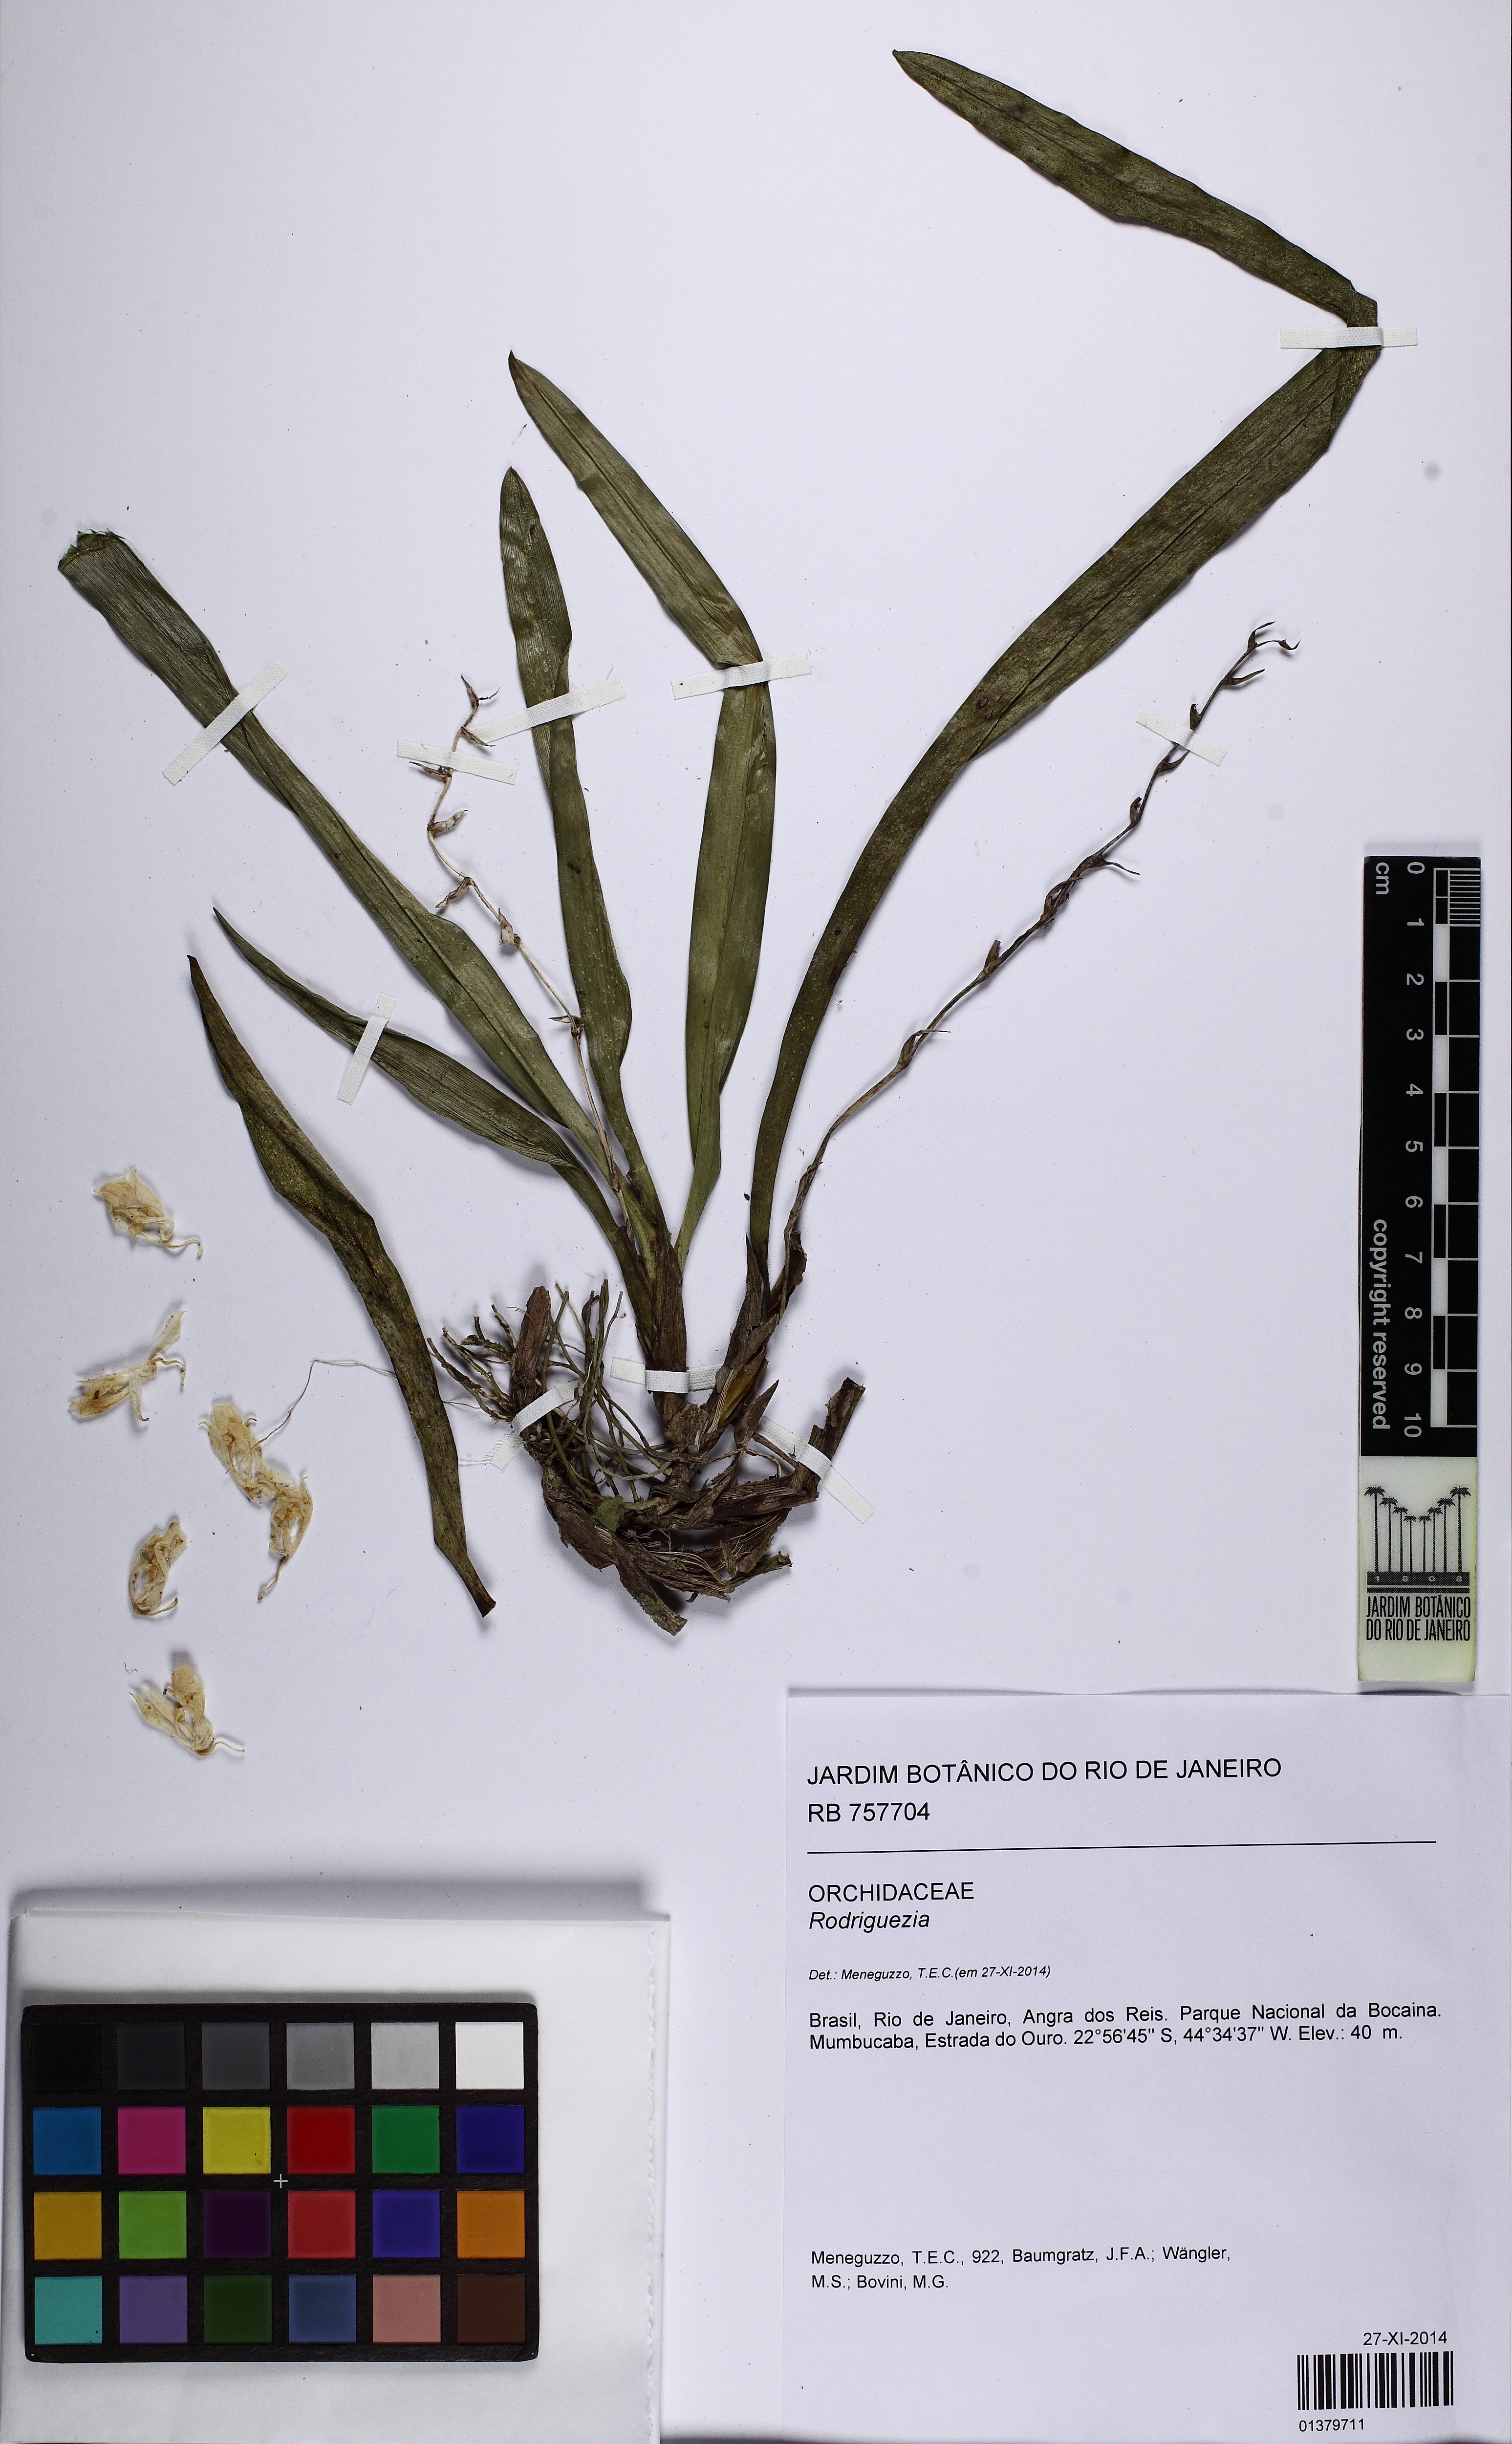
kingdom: Plantae
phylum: Tracheophyta
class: Liliopsida
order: Asparagales
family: Orchidaceae
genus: Rodriguezia
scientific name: Rodriguezia bracteata
